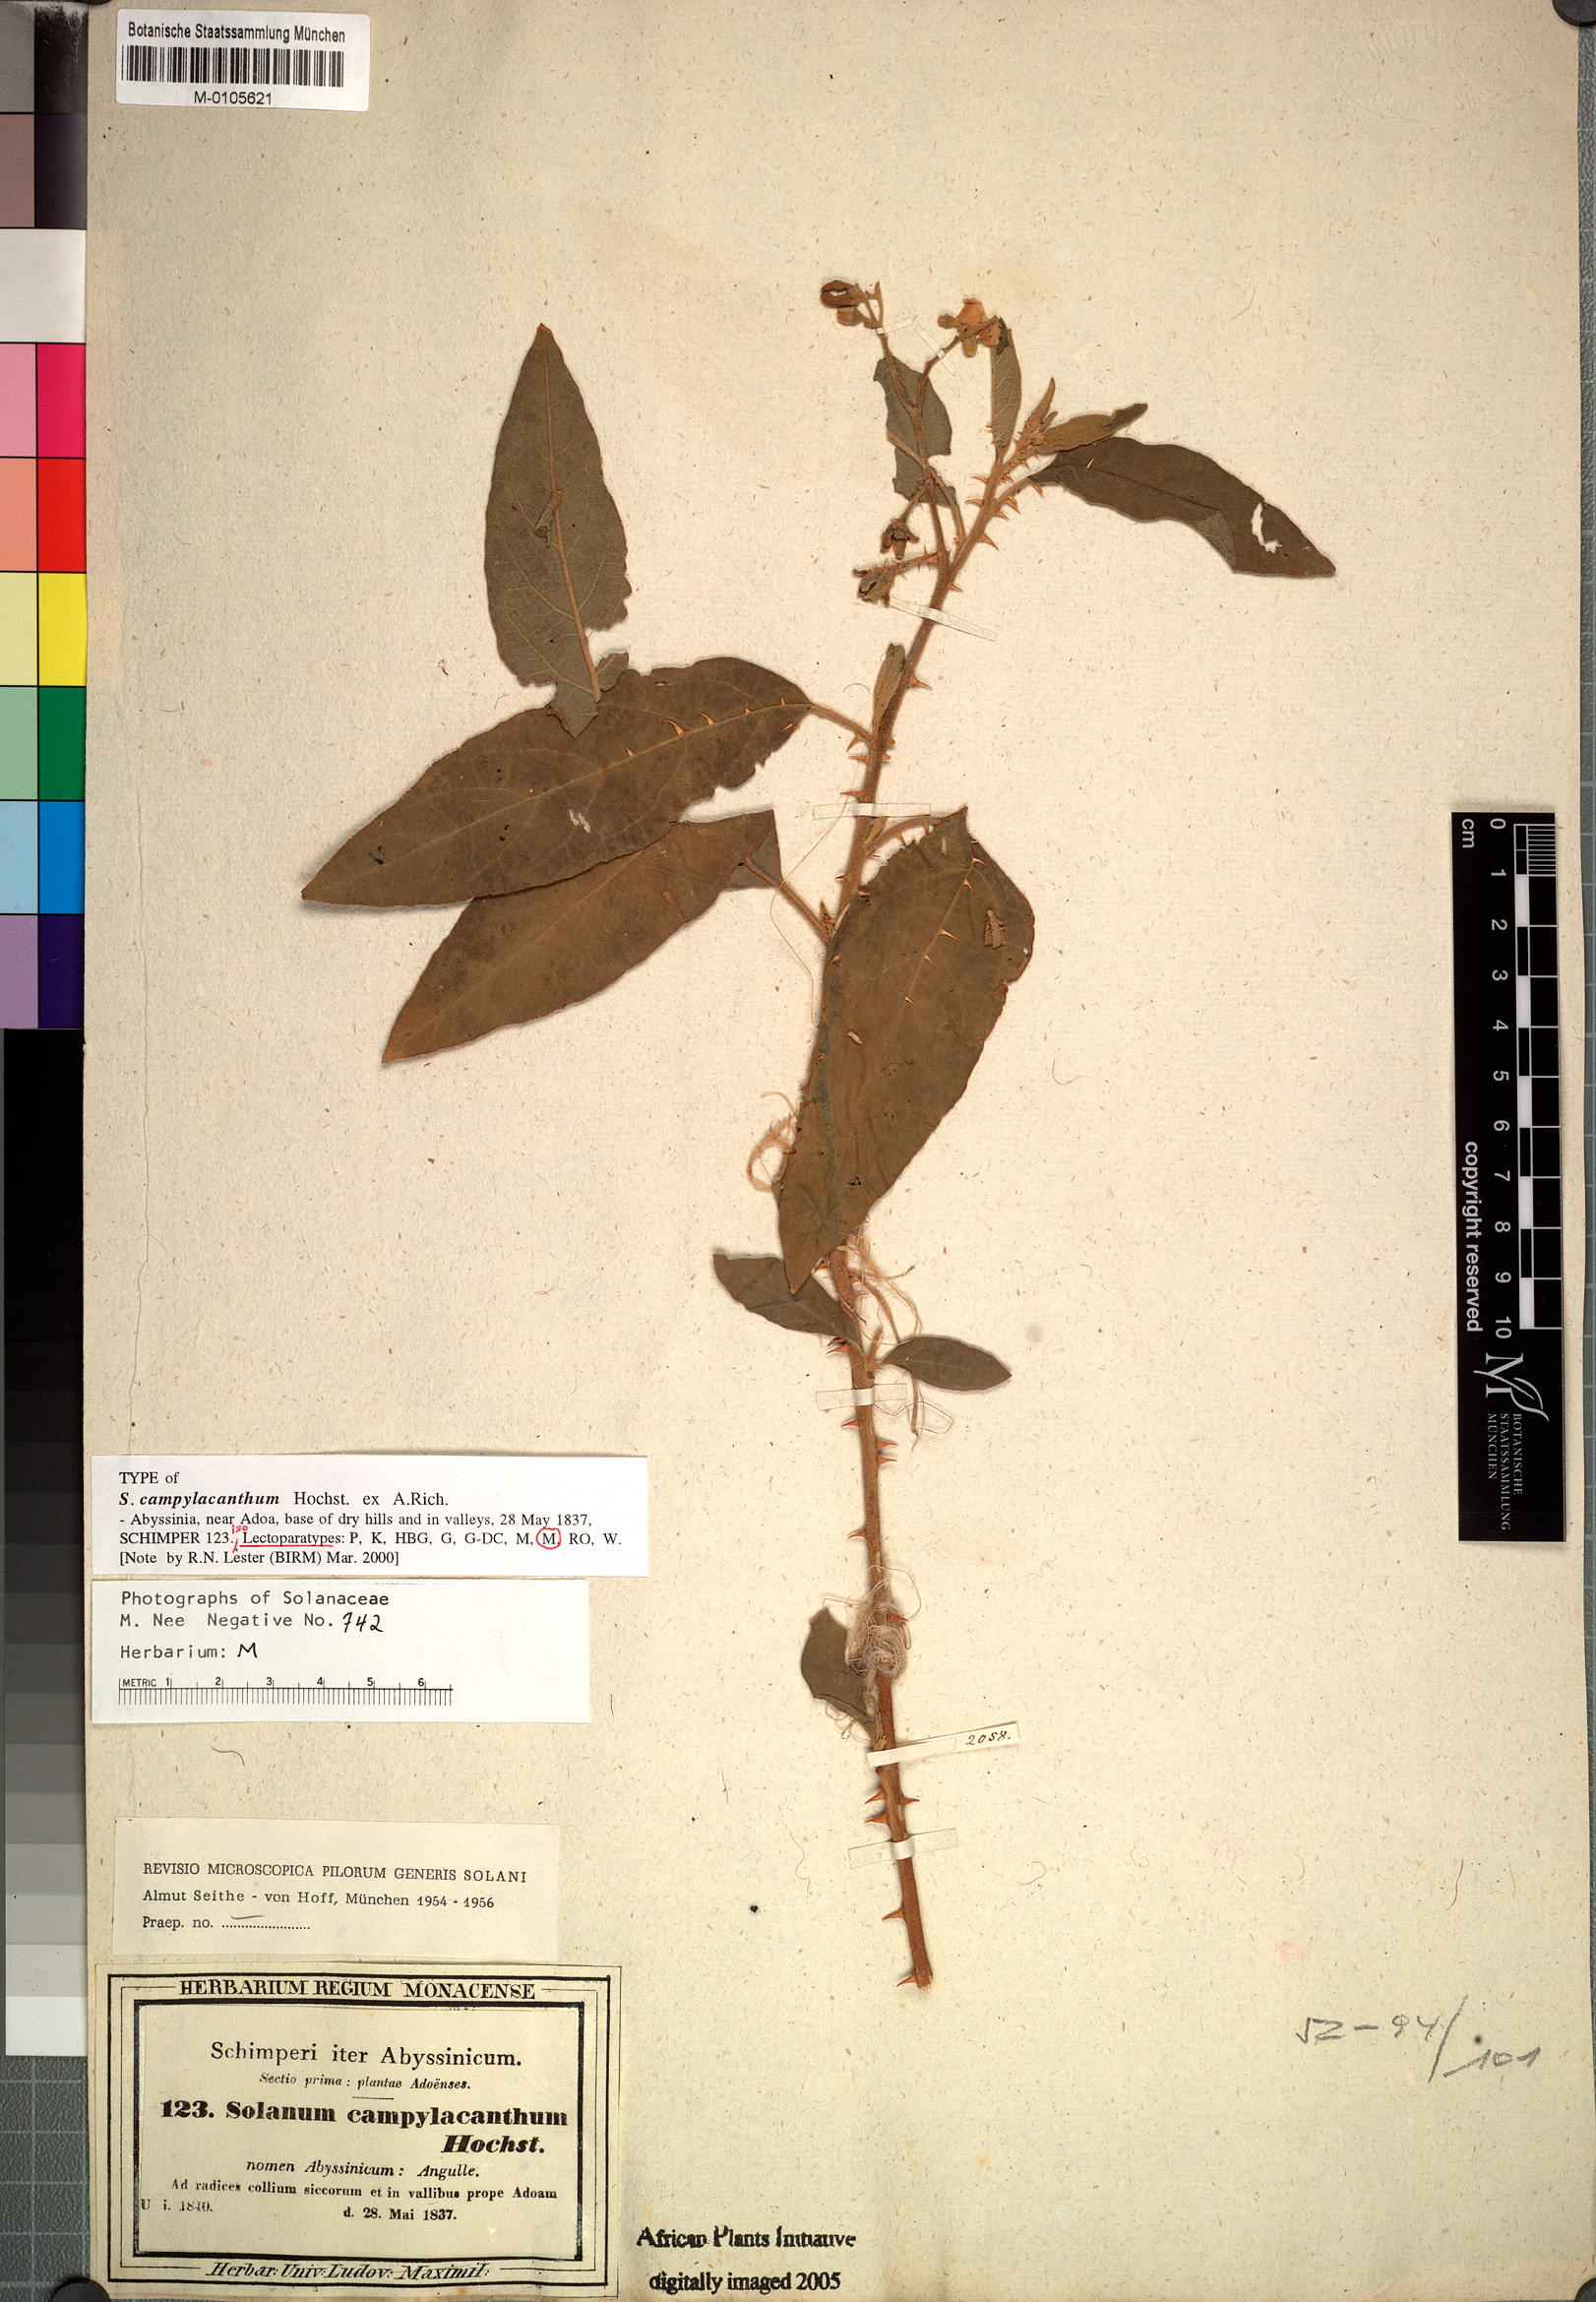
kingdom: Plantae
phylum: Tracheophyta
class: Magnoliopsida
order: Solanales
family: Solanaceae
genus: Solanum
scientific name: Solanum campylacanthum
